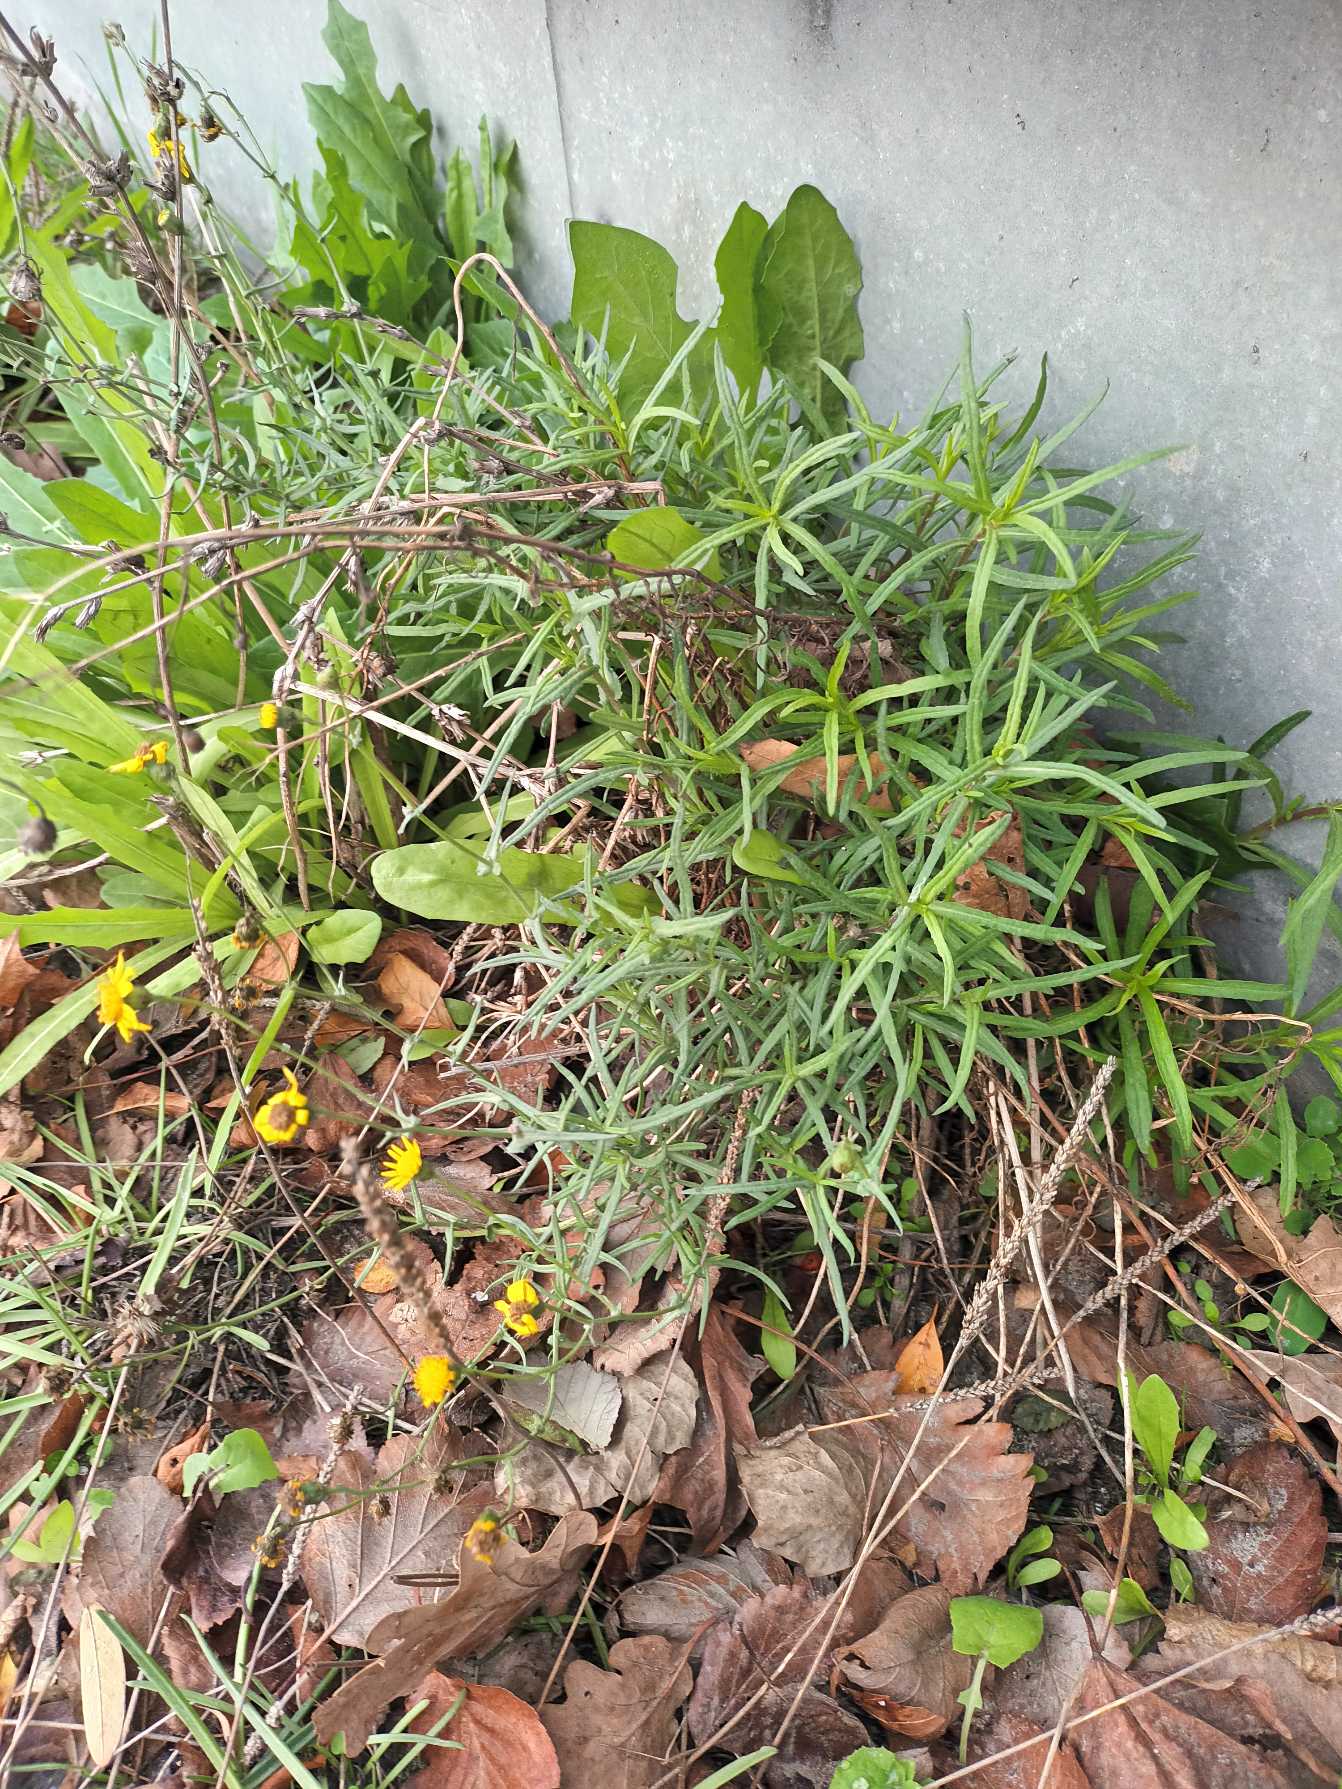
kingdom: Plantae
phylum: Tracheophyta
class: Magnoliopsida
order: Asterales
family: Asteraceae
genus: Senecio
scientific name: Senecio inaequidens
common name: Smalbladet brandbæger
